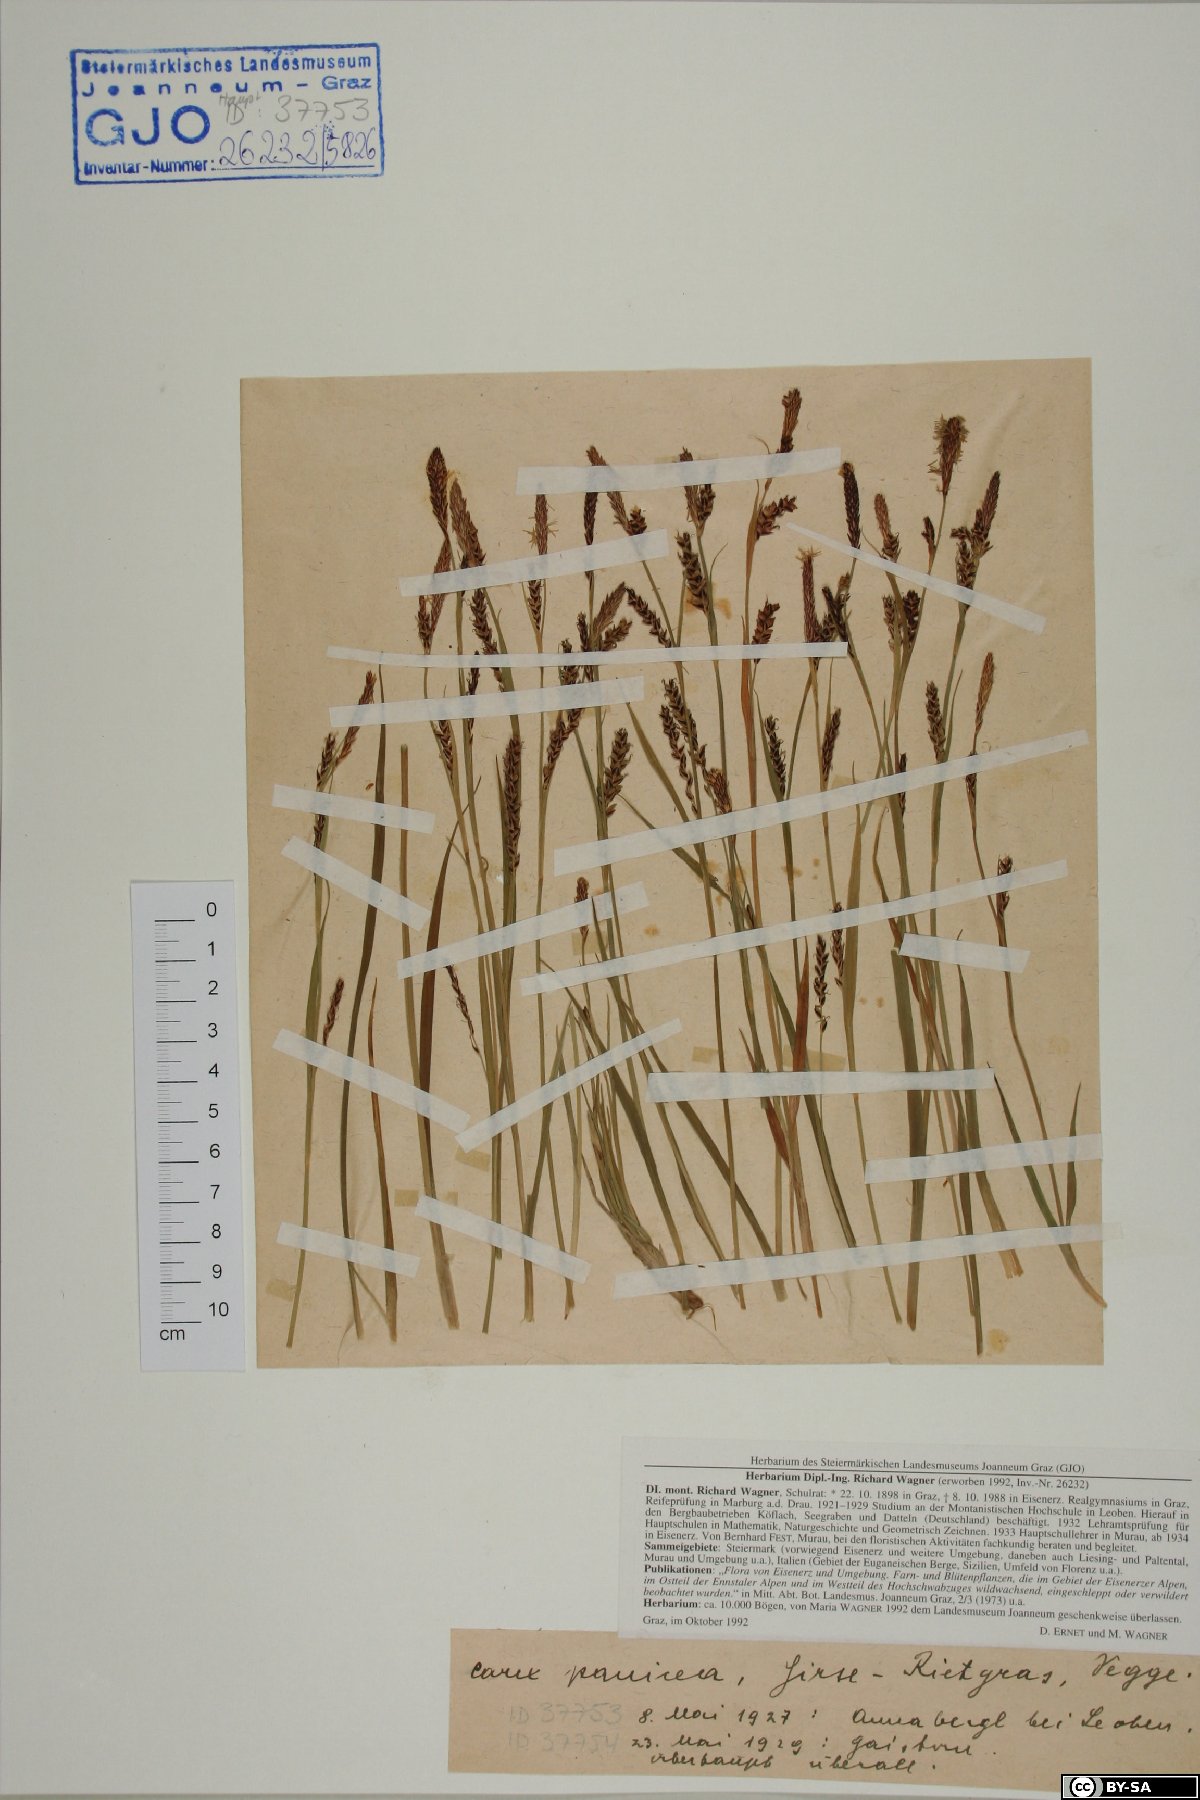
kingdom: Plantae
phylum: Tracheophyta
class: Liliopsida
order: Poales
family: Cyperaceae
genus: Carex
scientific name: Carex panicea
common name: Carnation sedge
